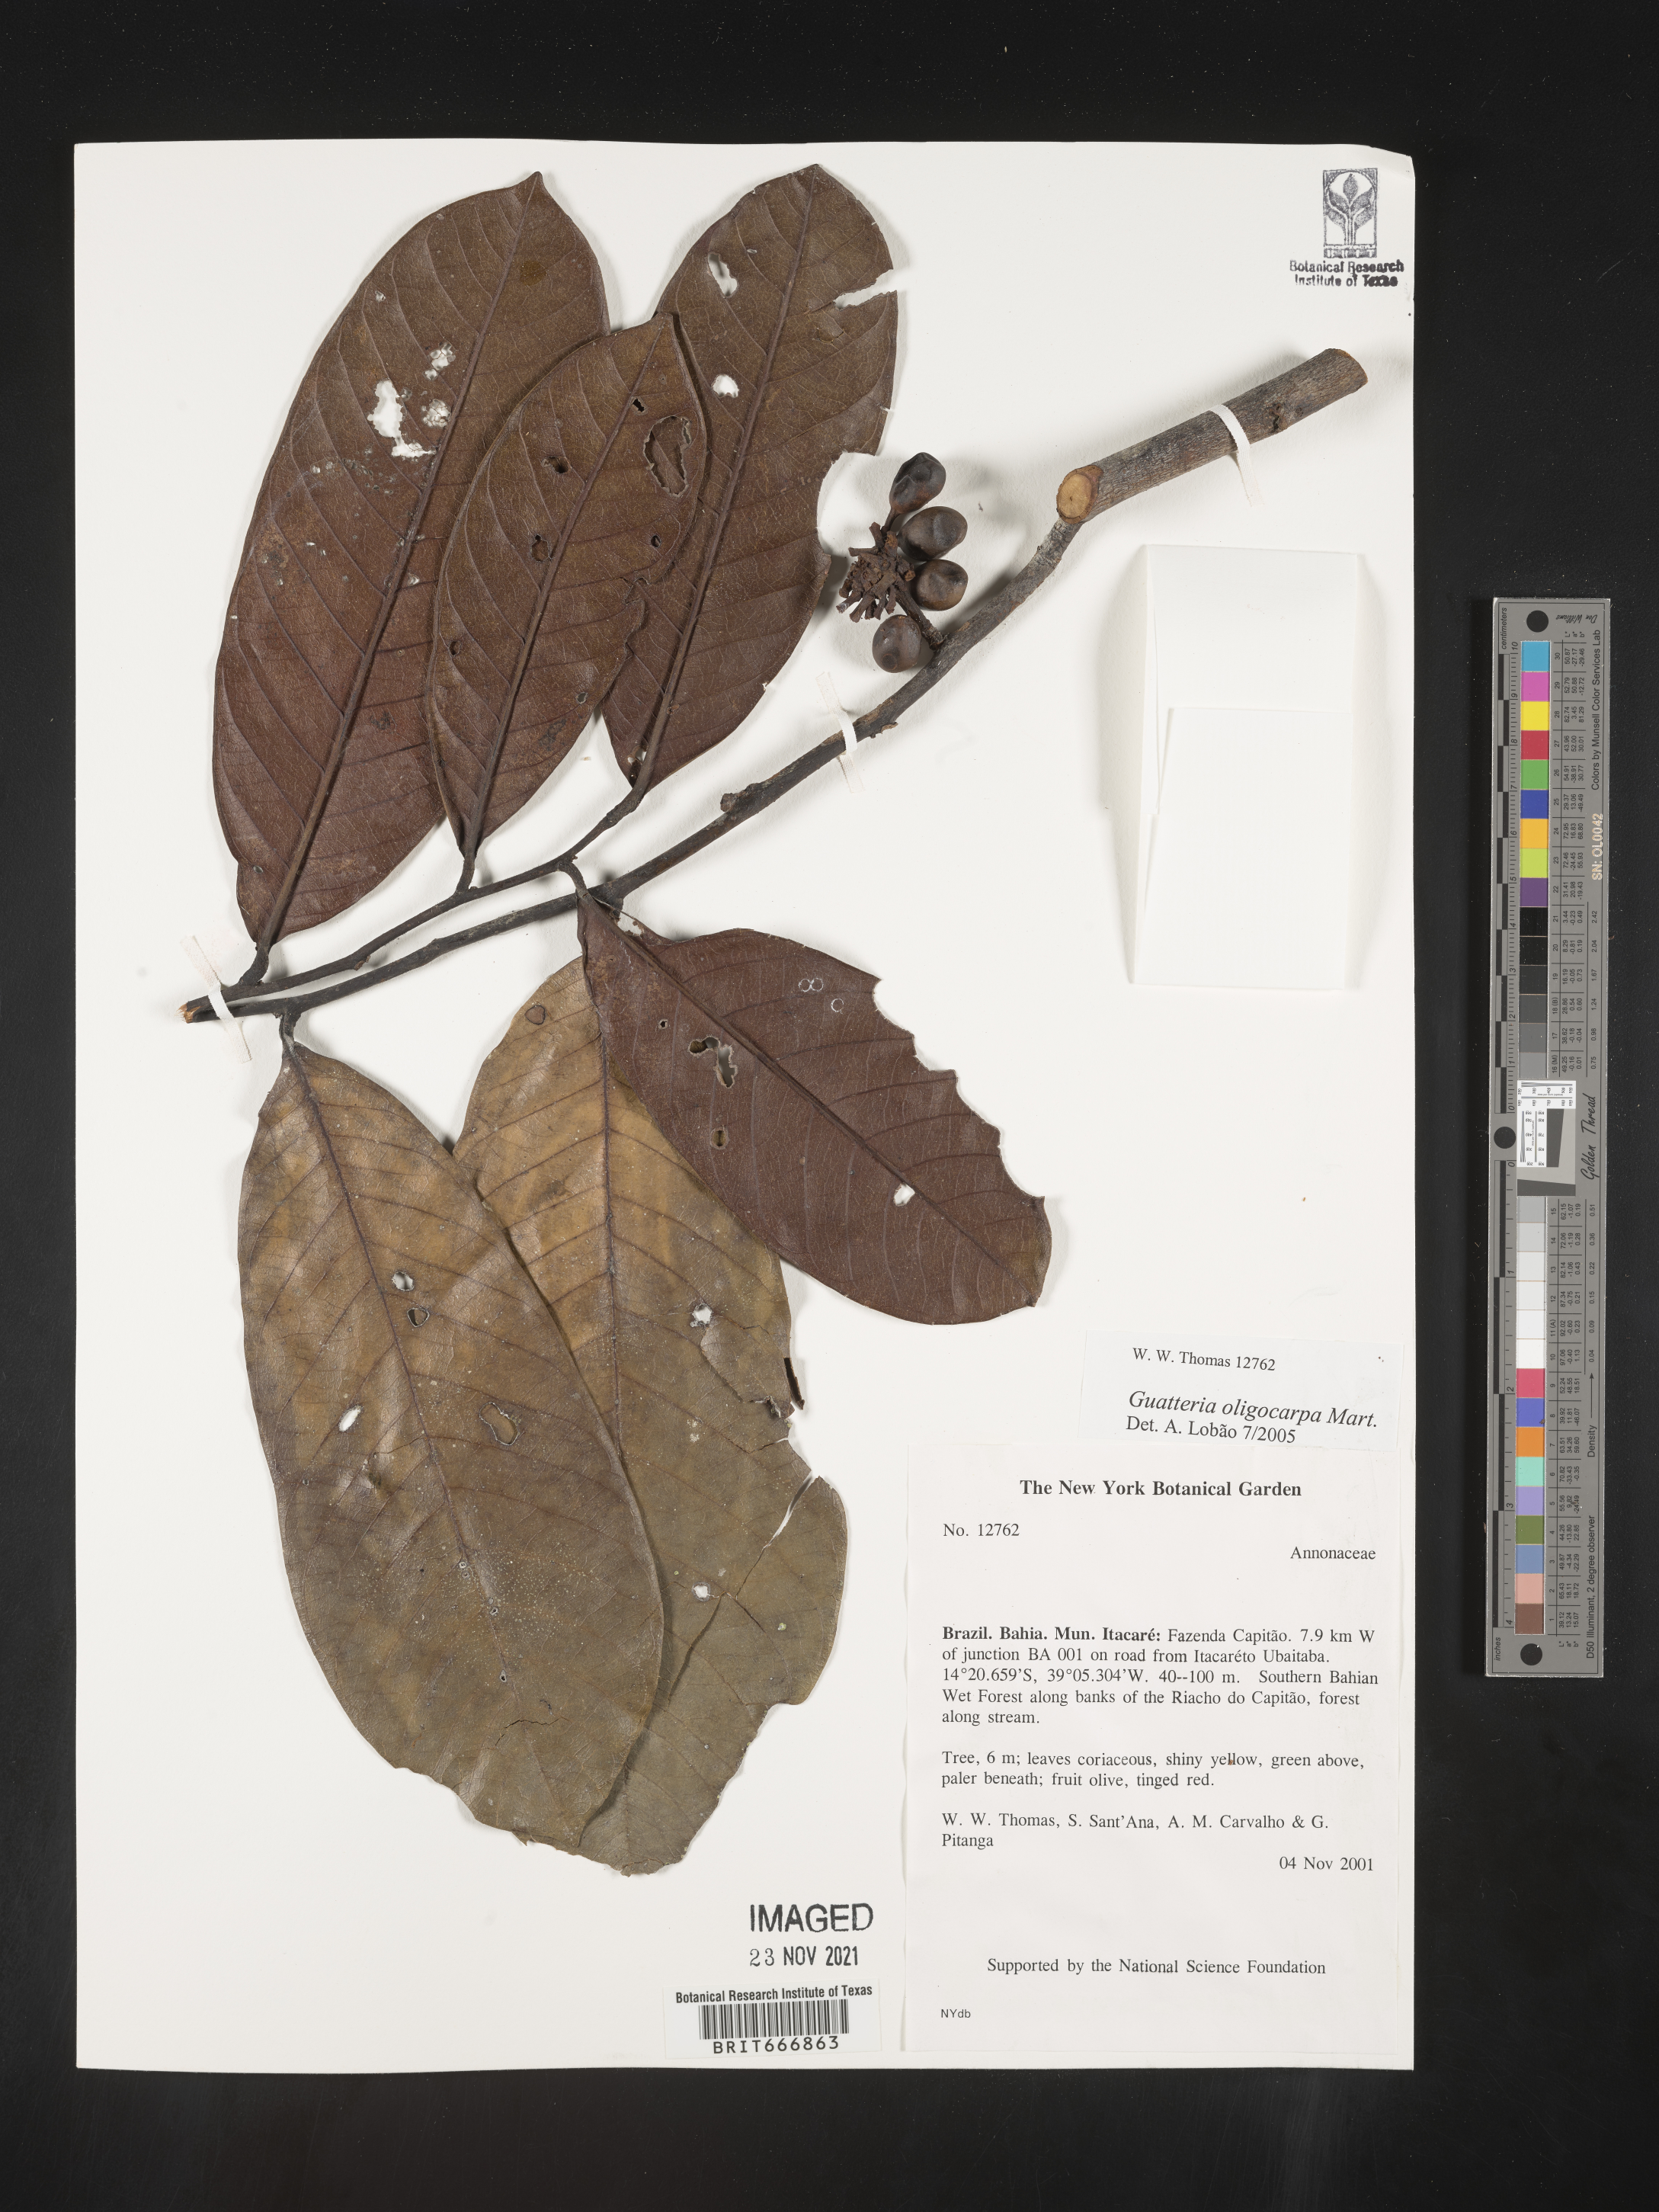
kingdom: Plantae
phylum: Tracheophyta
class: Magnoliopsida
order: Magnoliales
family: Annonaceae
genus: Guatteria
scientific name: Guatteria
